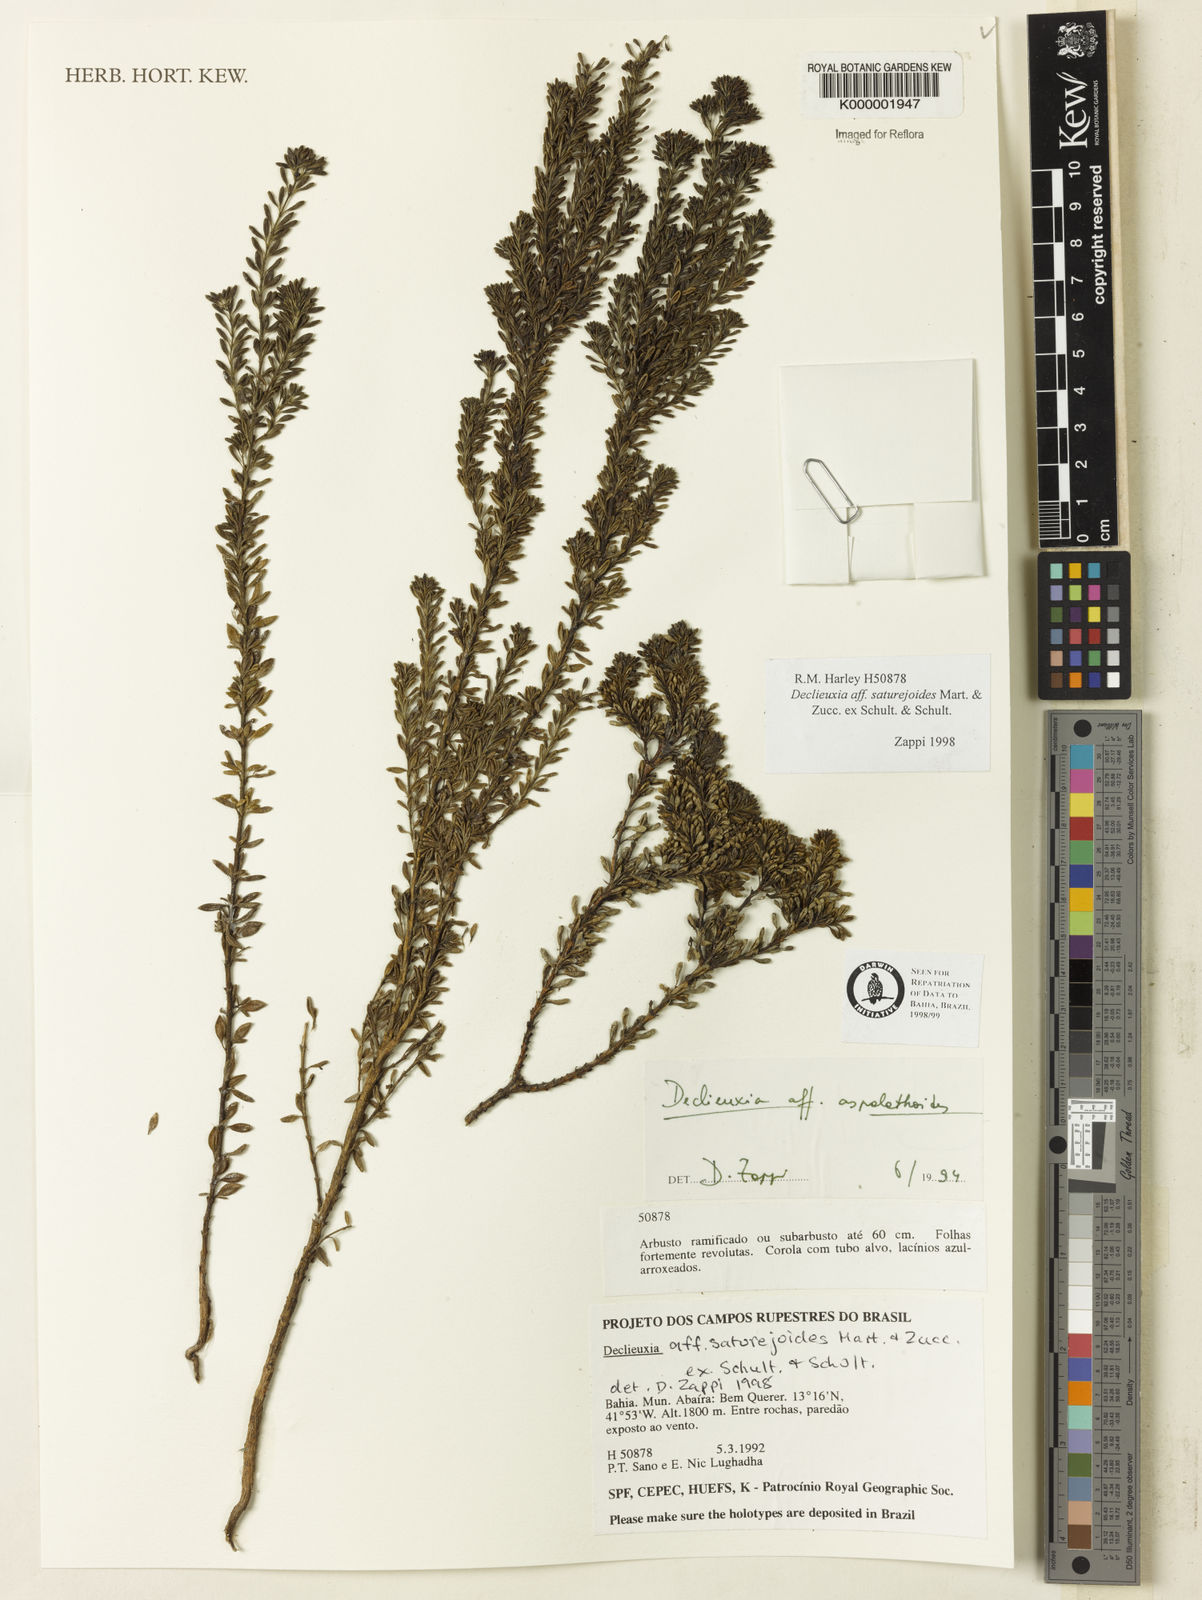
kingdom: Plantae
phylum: Tracheophyta
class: Magnoliopsida
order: Gentianales
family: Rubiaceae
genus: Declieuxia
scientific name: Declieuxia
